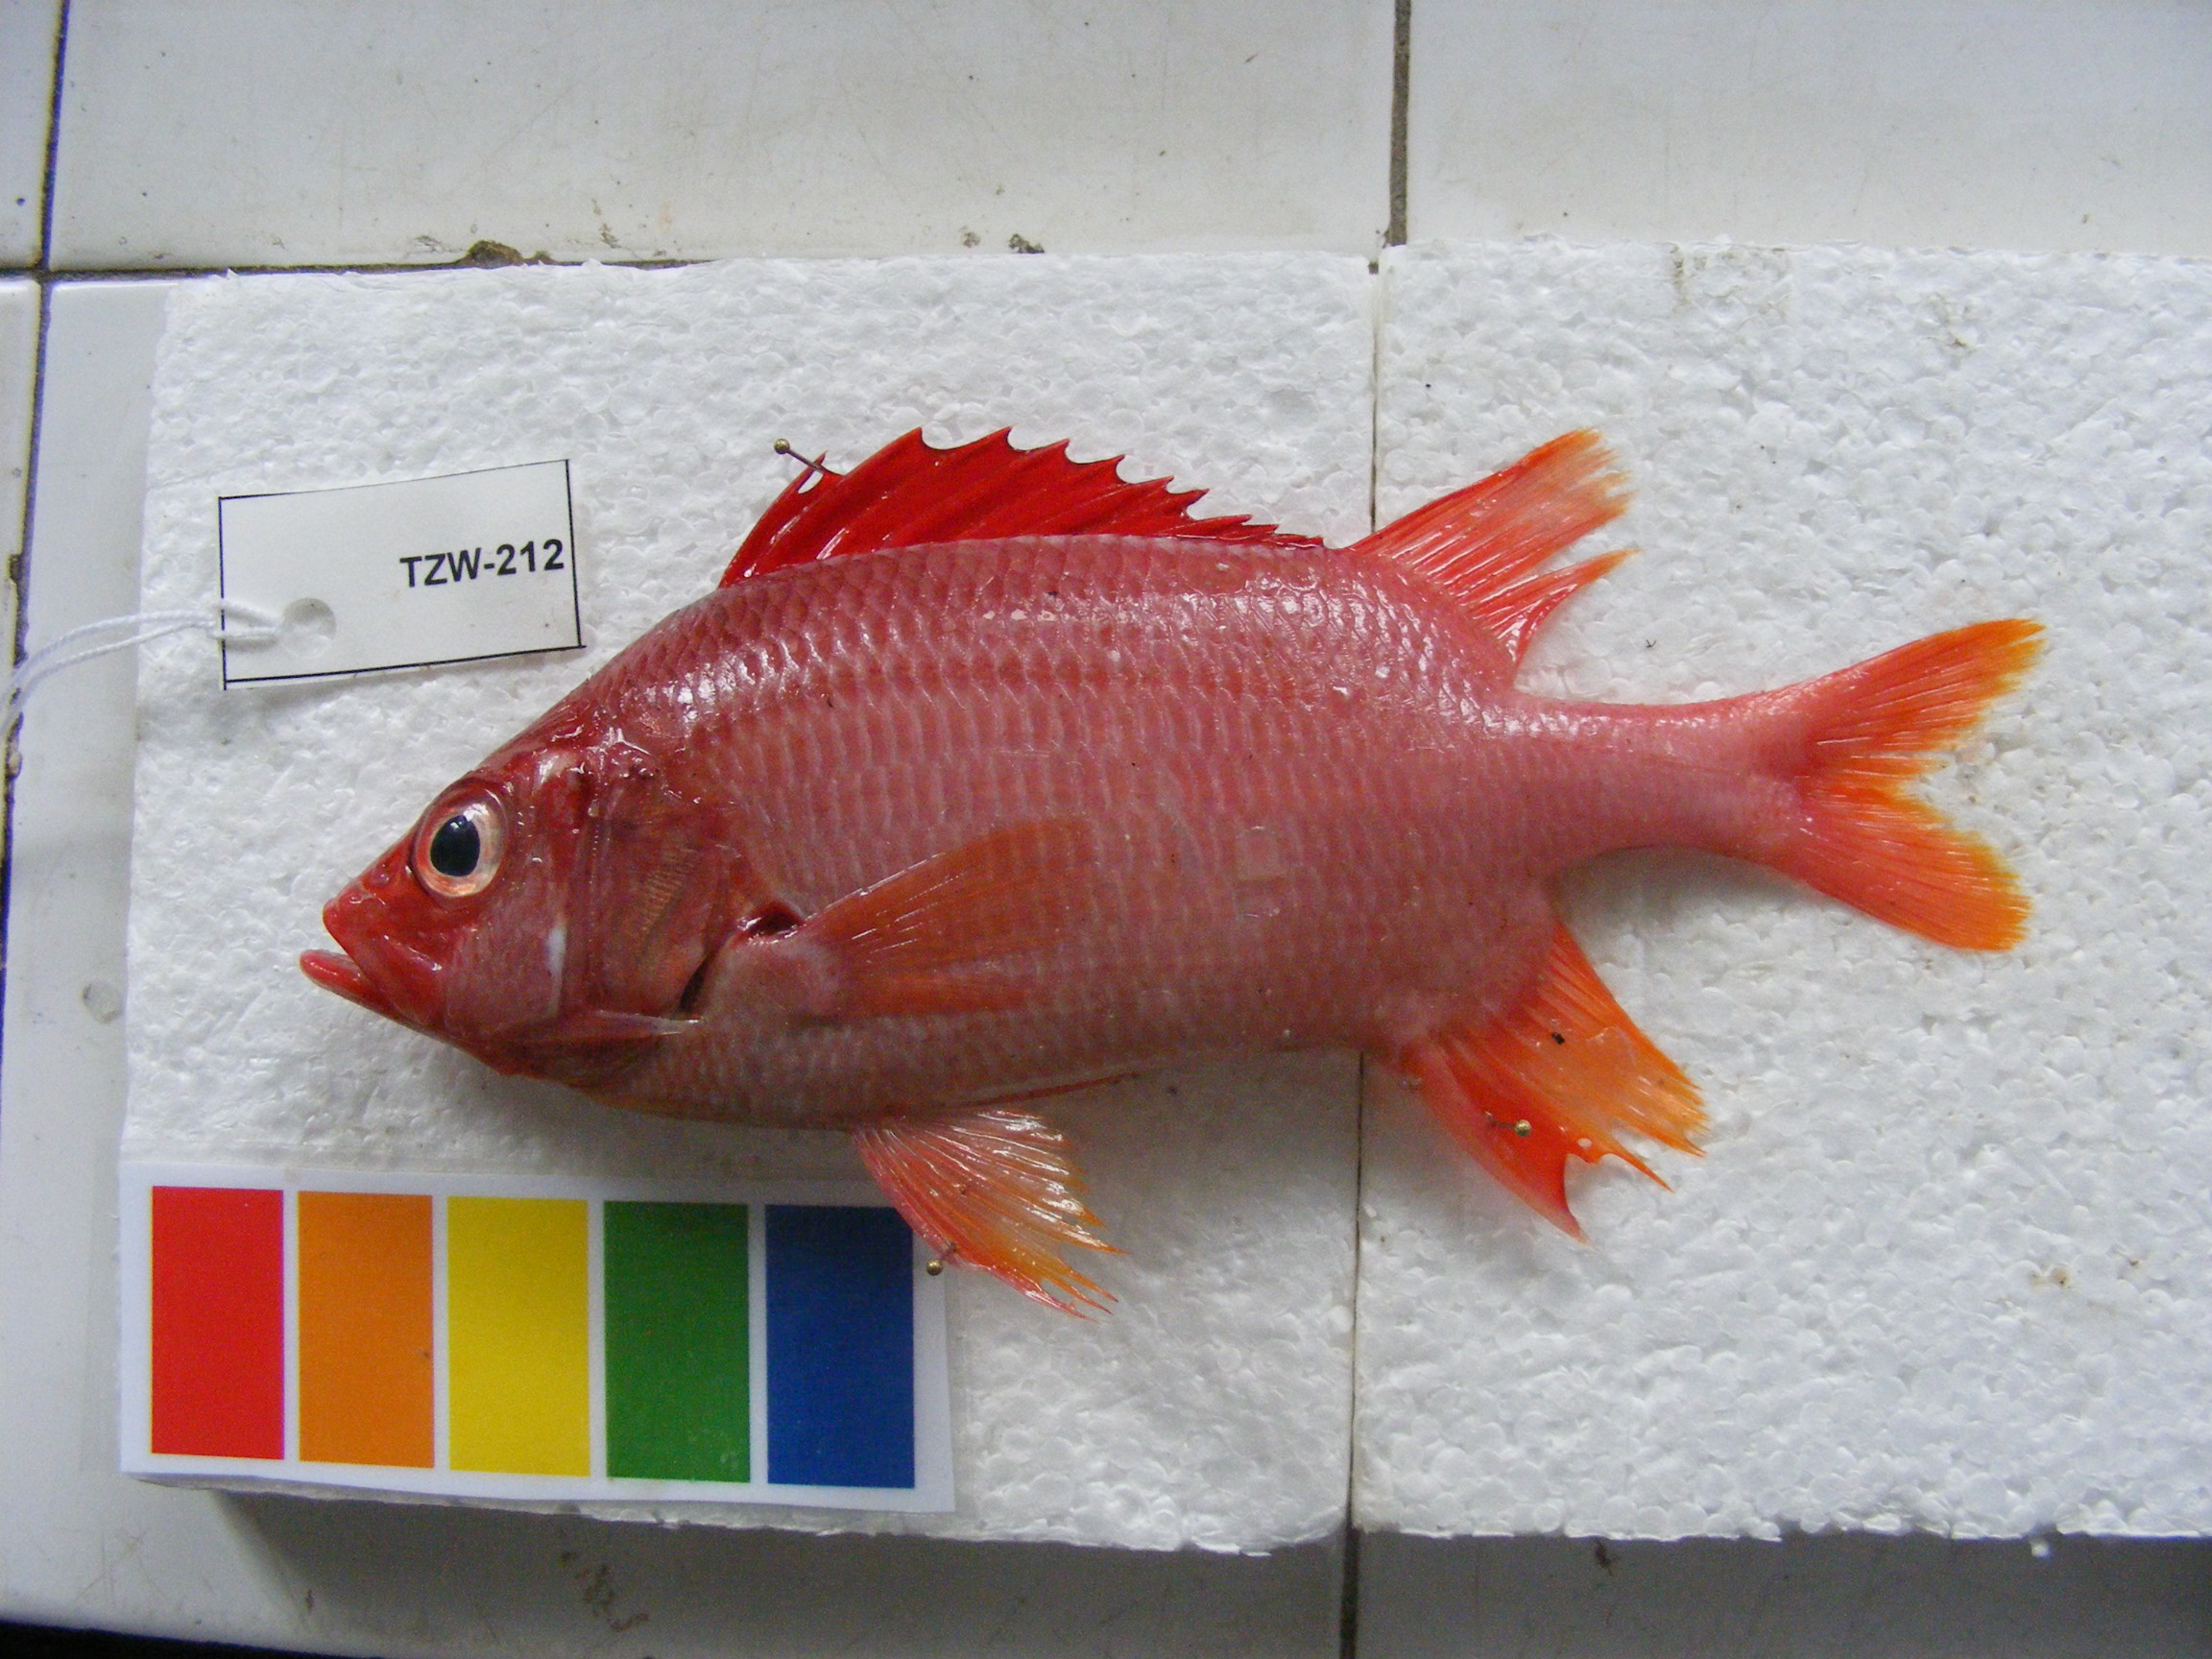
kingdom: Animalia
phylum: Chordata
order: Beryciformes
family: Holocentridae
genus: Sargocentron
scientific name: Sargocentron spiniferum
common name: Giant squirrelfish
